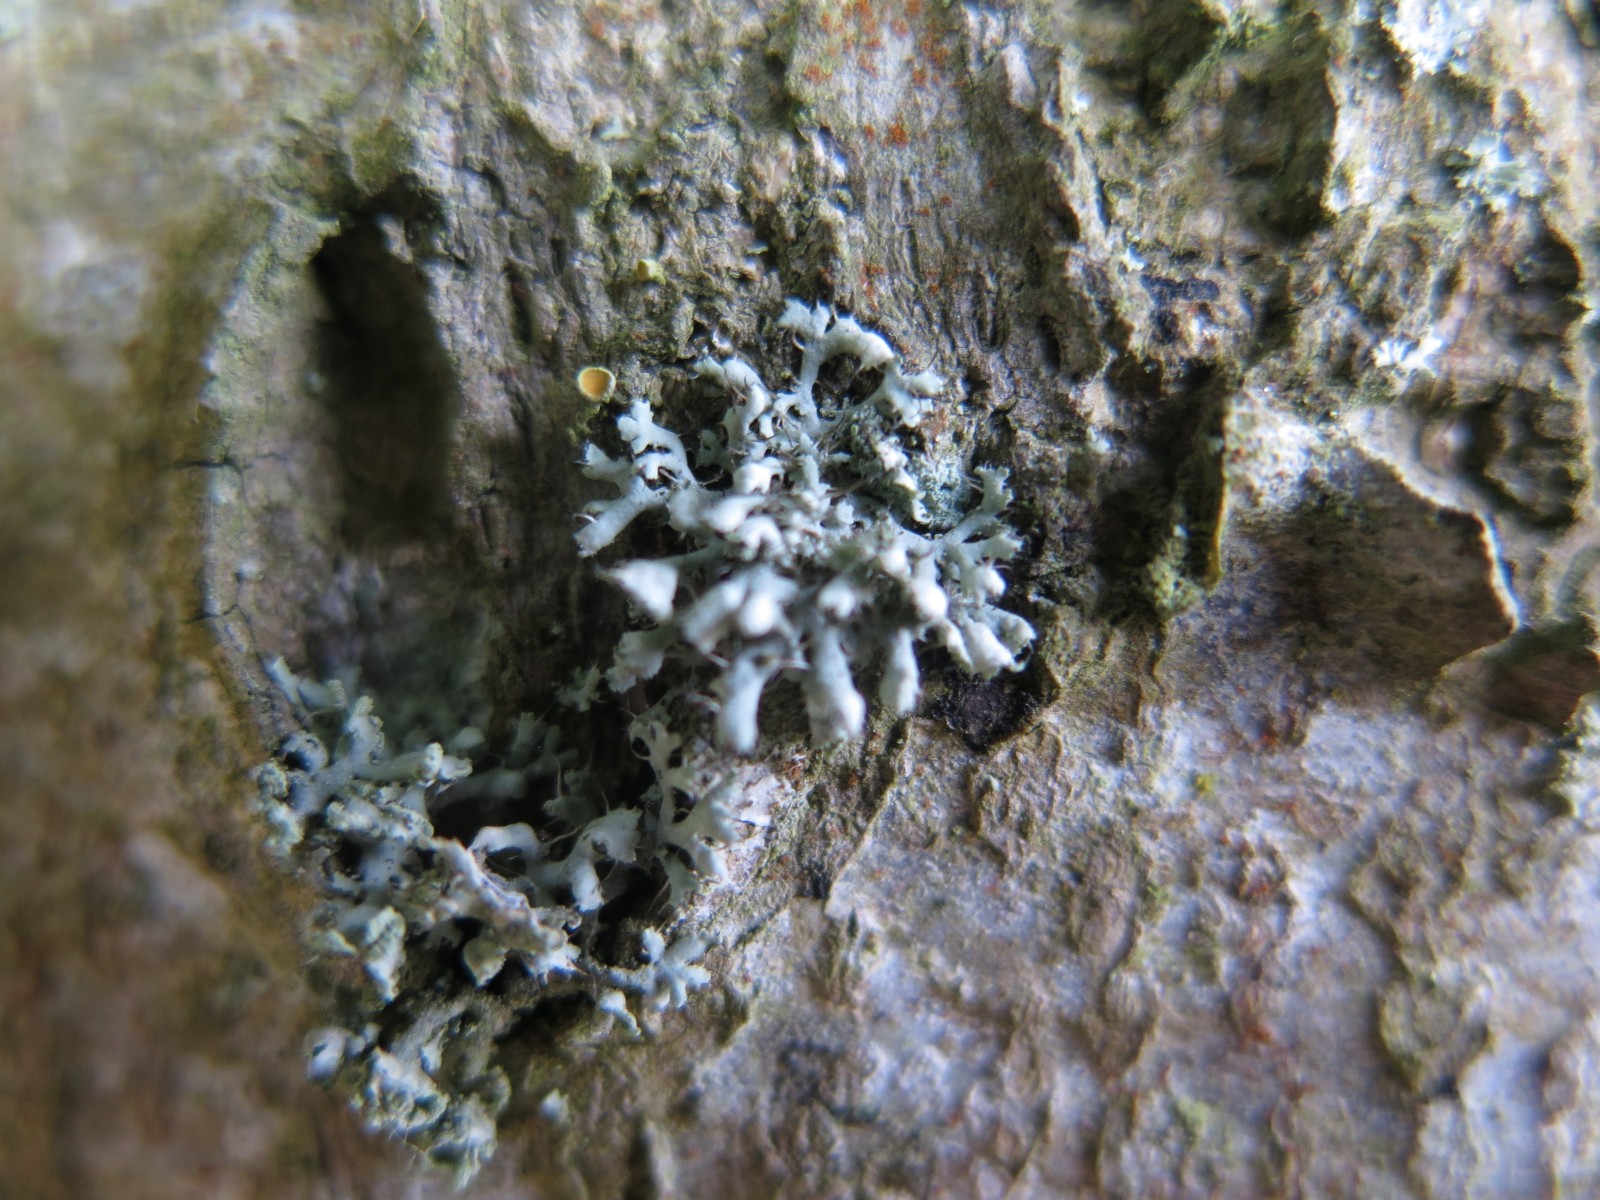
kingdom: Fungi
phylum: Ascomycota
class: Lecanoromycetes
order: Caliciales
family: Physciaceae
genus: Physcia
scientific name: Physcia adscendens
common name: hætte-rosetlav
